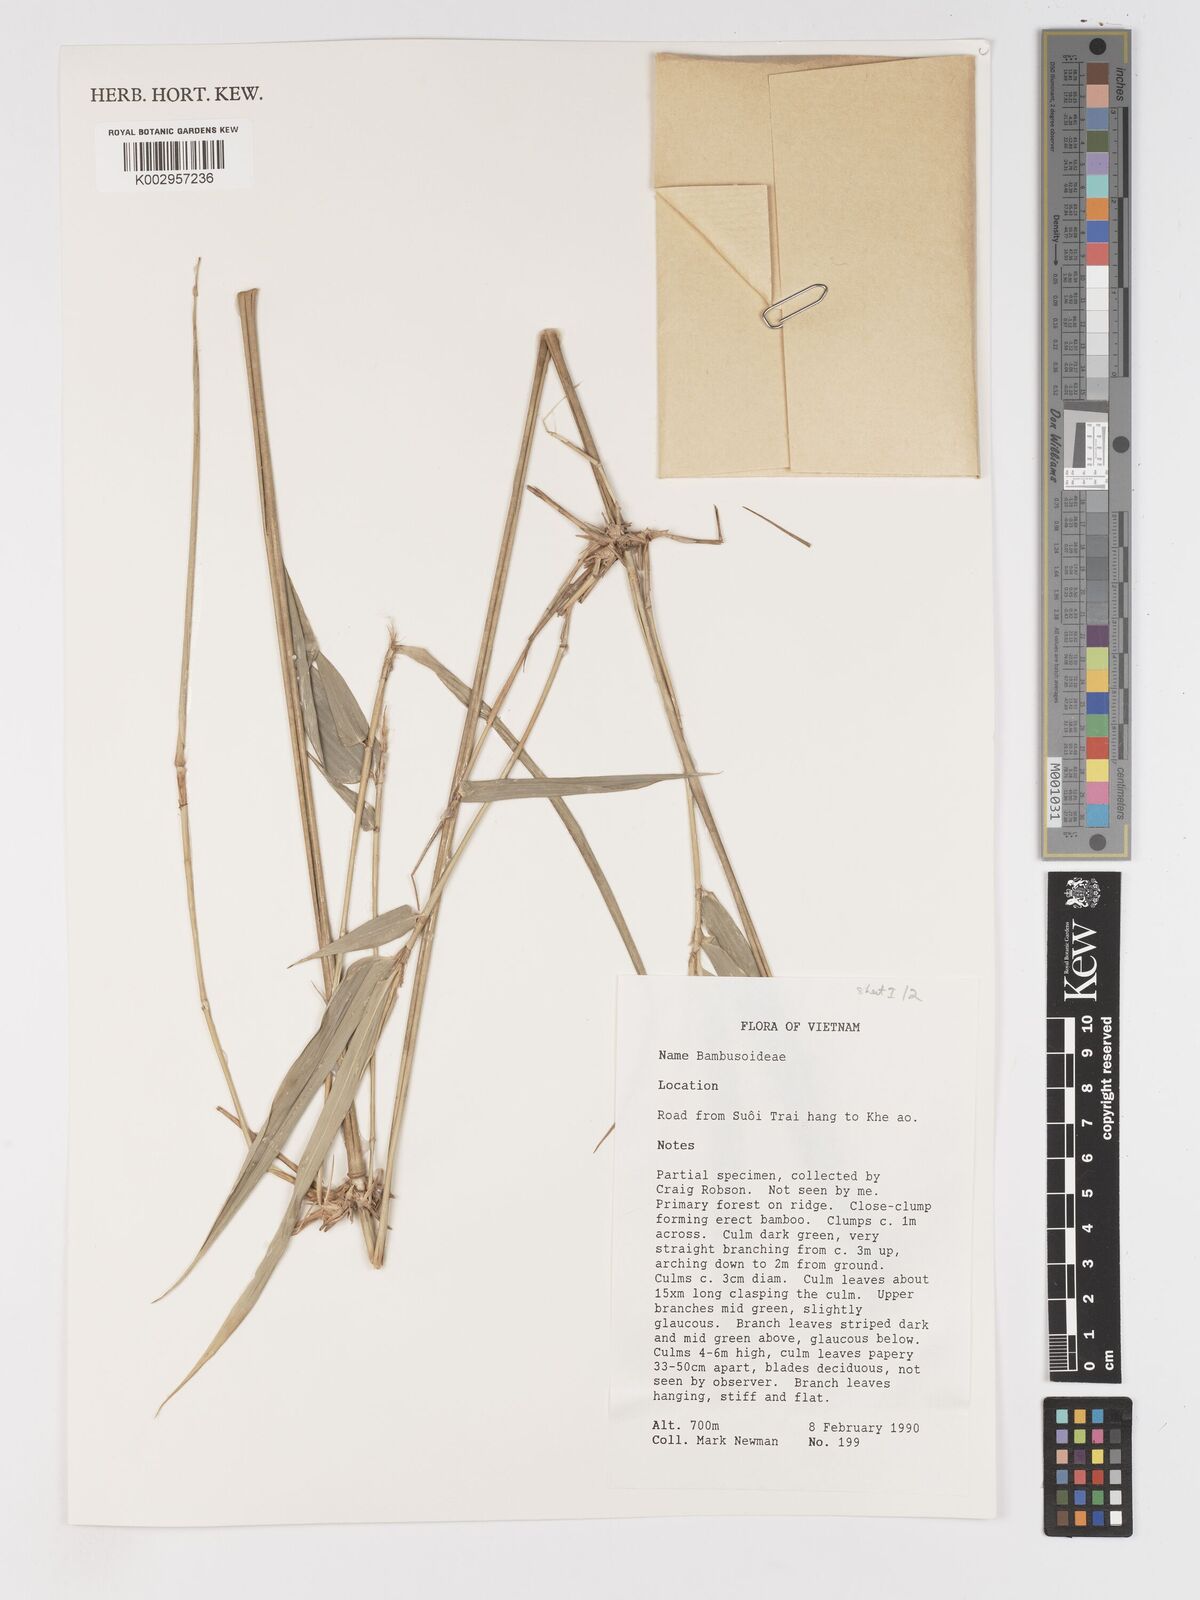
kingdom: Plantae
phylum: Tracheophyta
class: Liliopsida
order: Poales
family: Poaceae
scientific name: Poaceae
